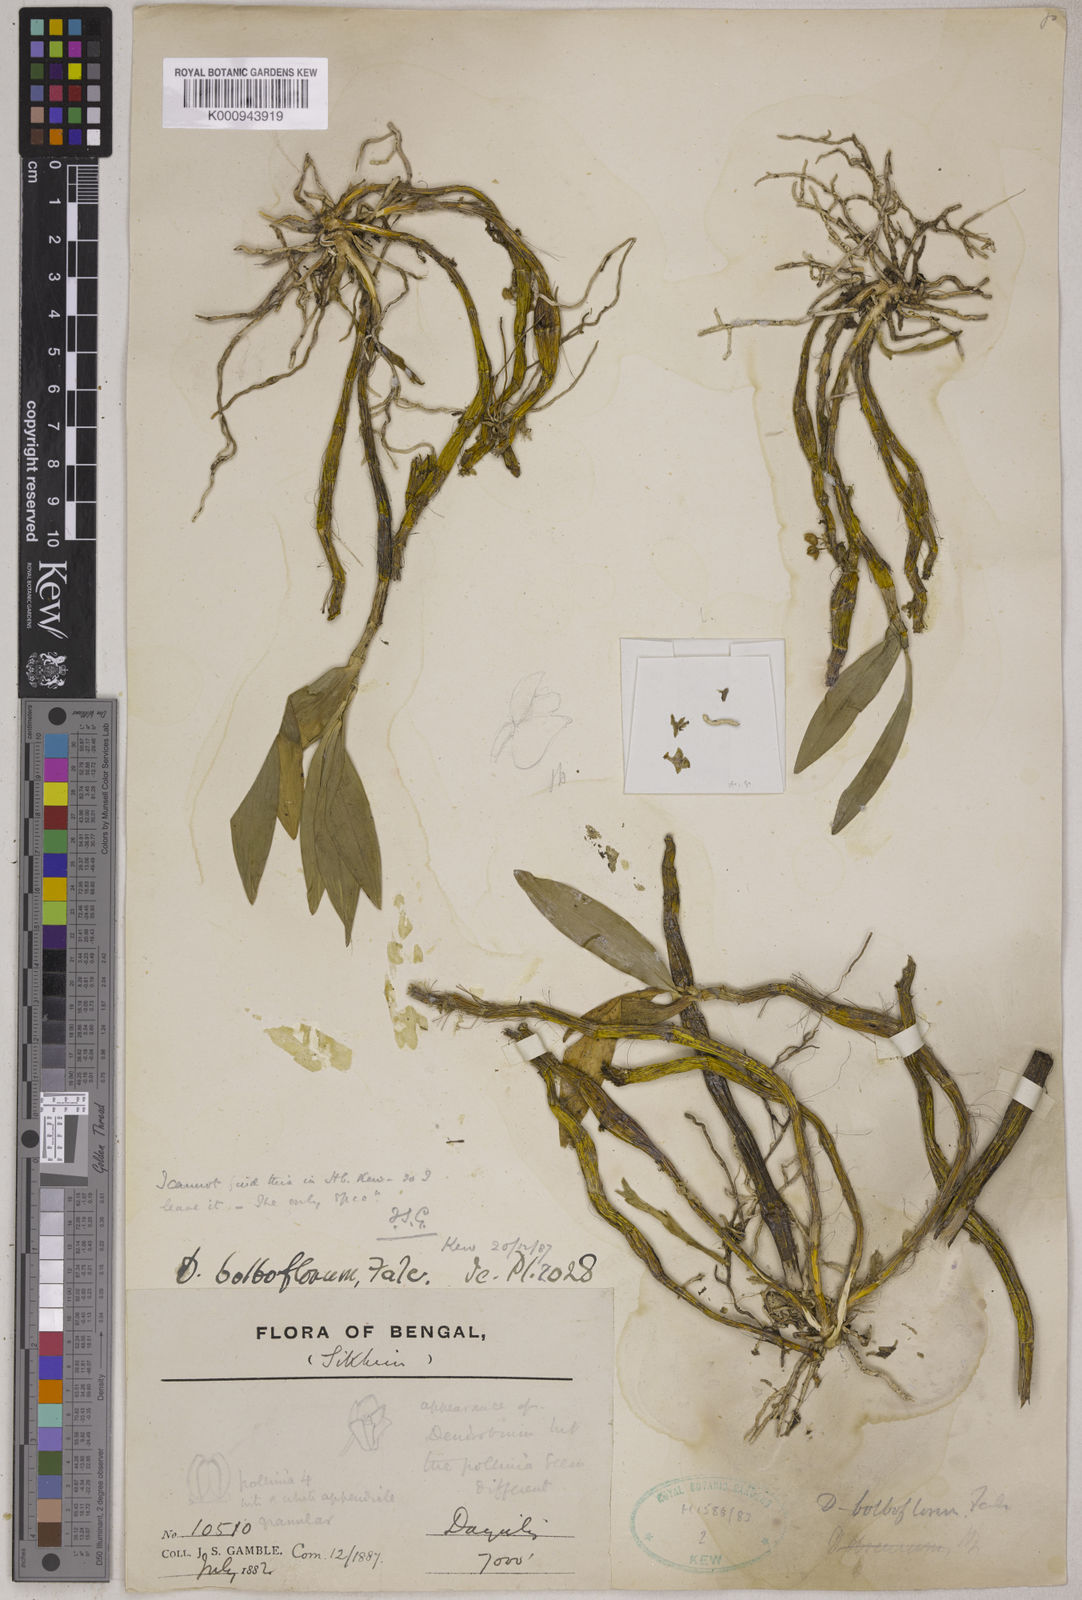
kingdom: Plantae
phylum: Tracheophyta
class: Liliopsida
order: Asparagales
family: Orchidaceae
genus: Dendrobium
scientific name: Dendrobium bicameratum
